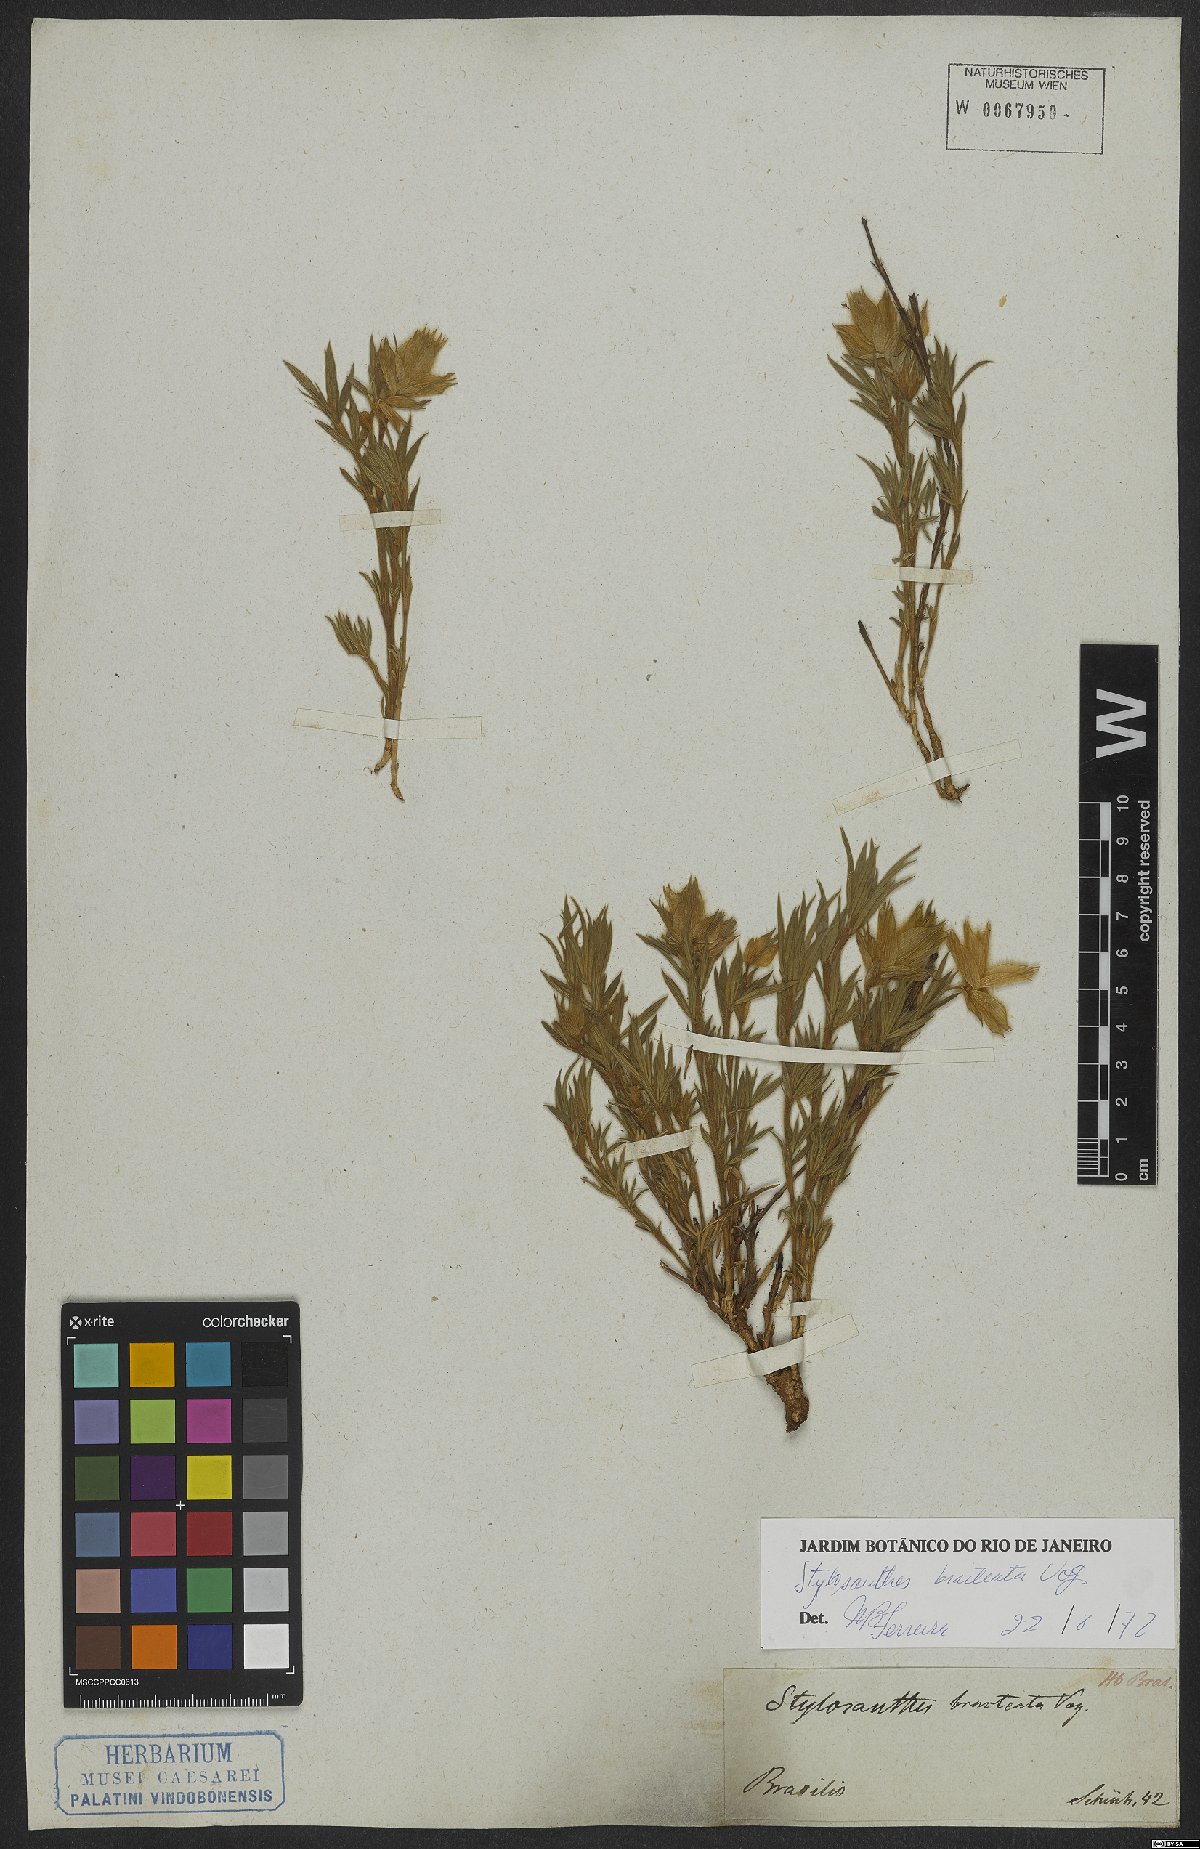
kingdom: Plantae
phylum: Tracheophyta
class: Magnoliopsida
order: Fabales
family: Fabaceae
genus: Stylosanthes
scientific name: Stylosanthes bracteata
